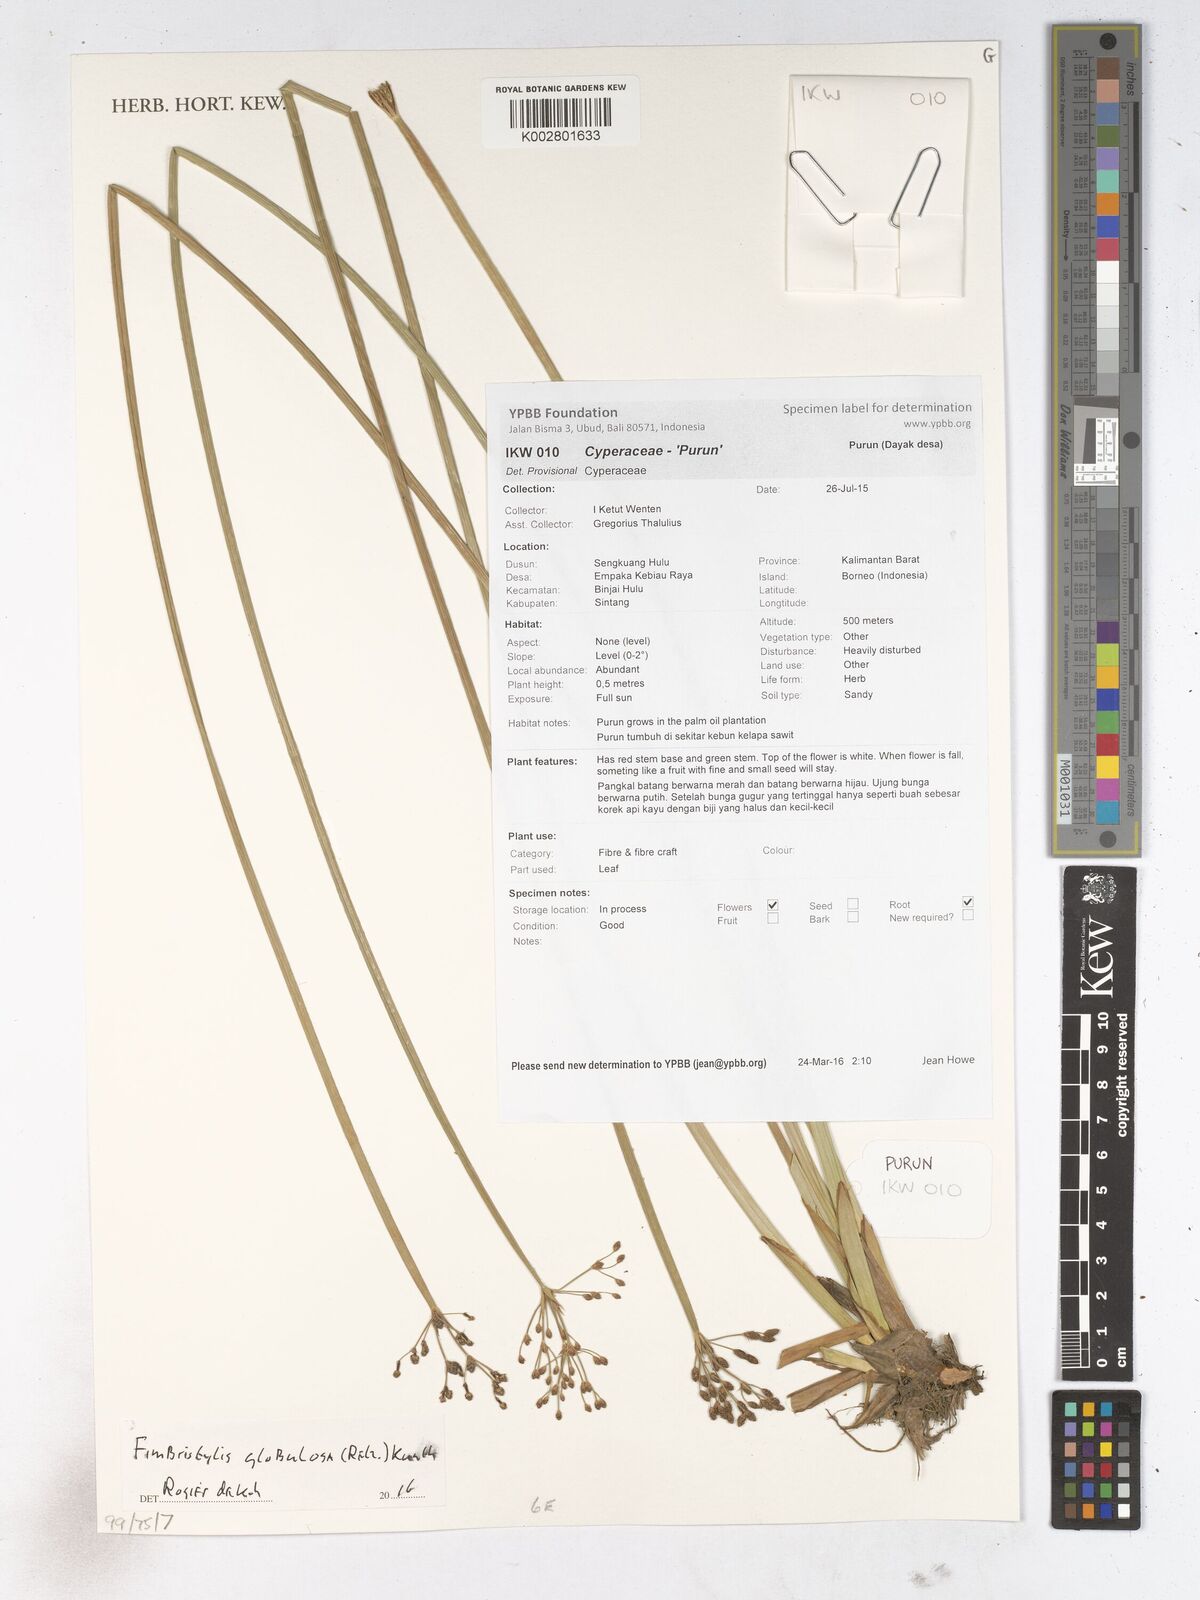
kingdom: Plantae
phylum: Tracheophyta
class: Liliopsida
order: Poales
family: Cyperaceae
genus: Fimbristylis
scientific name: Fimbristylis umbellaris
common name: Globular fimbristylis
